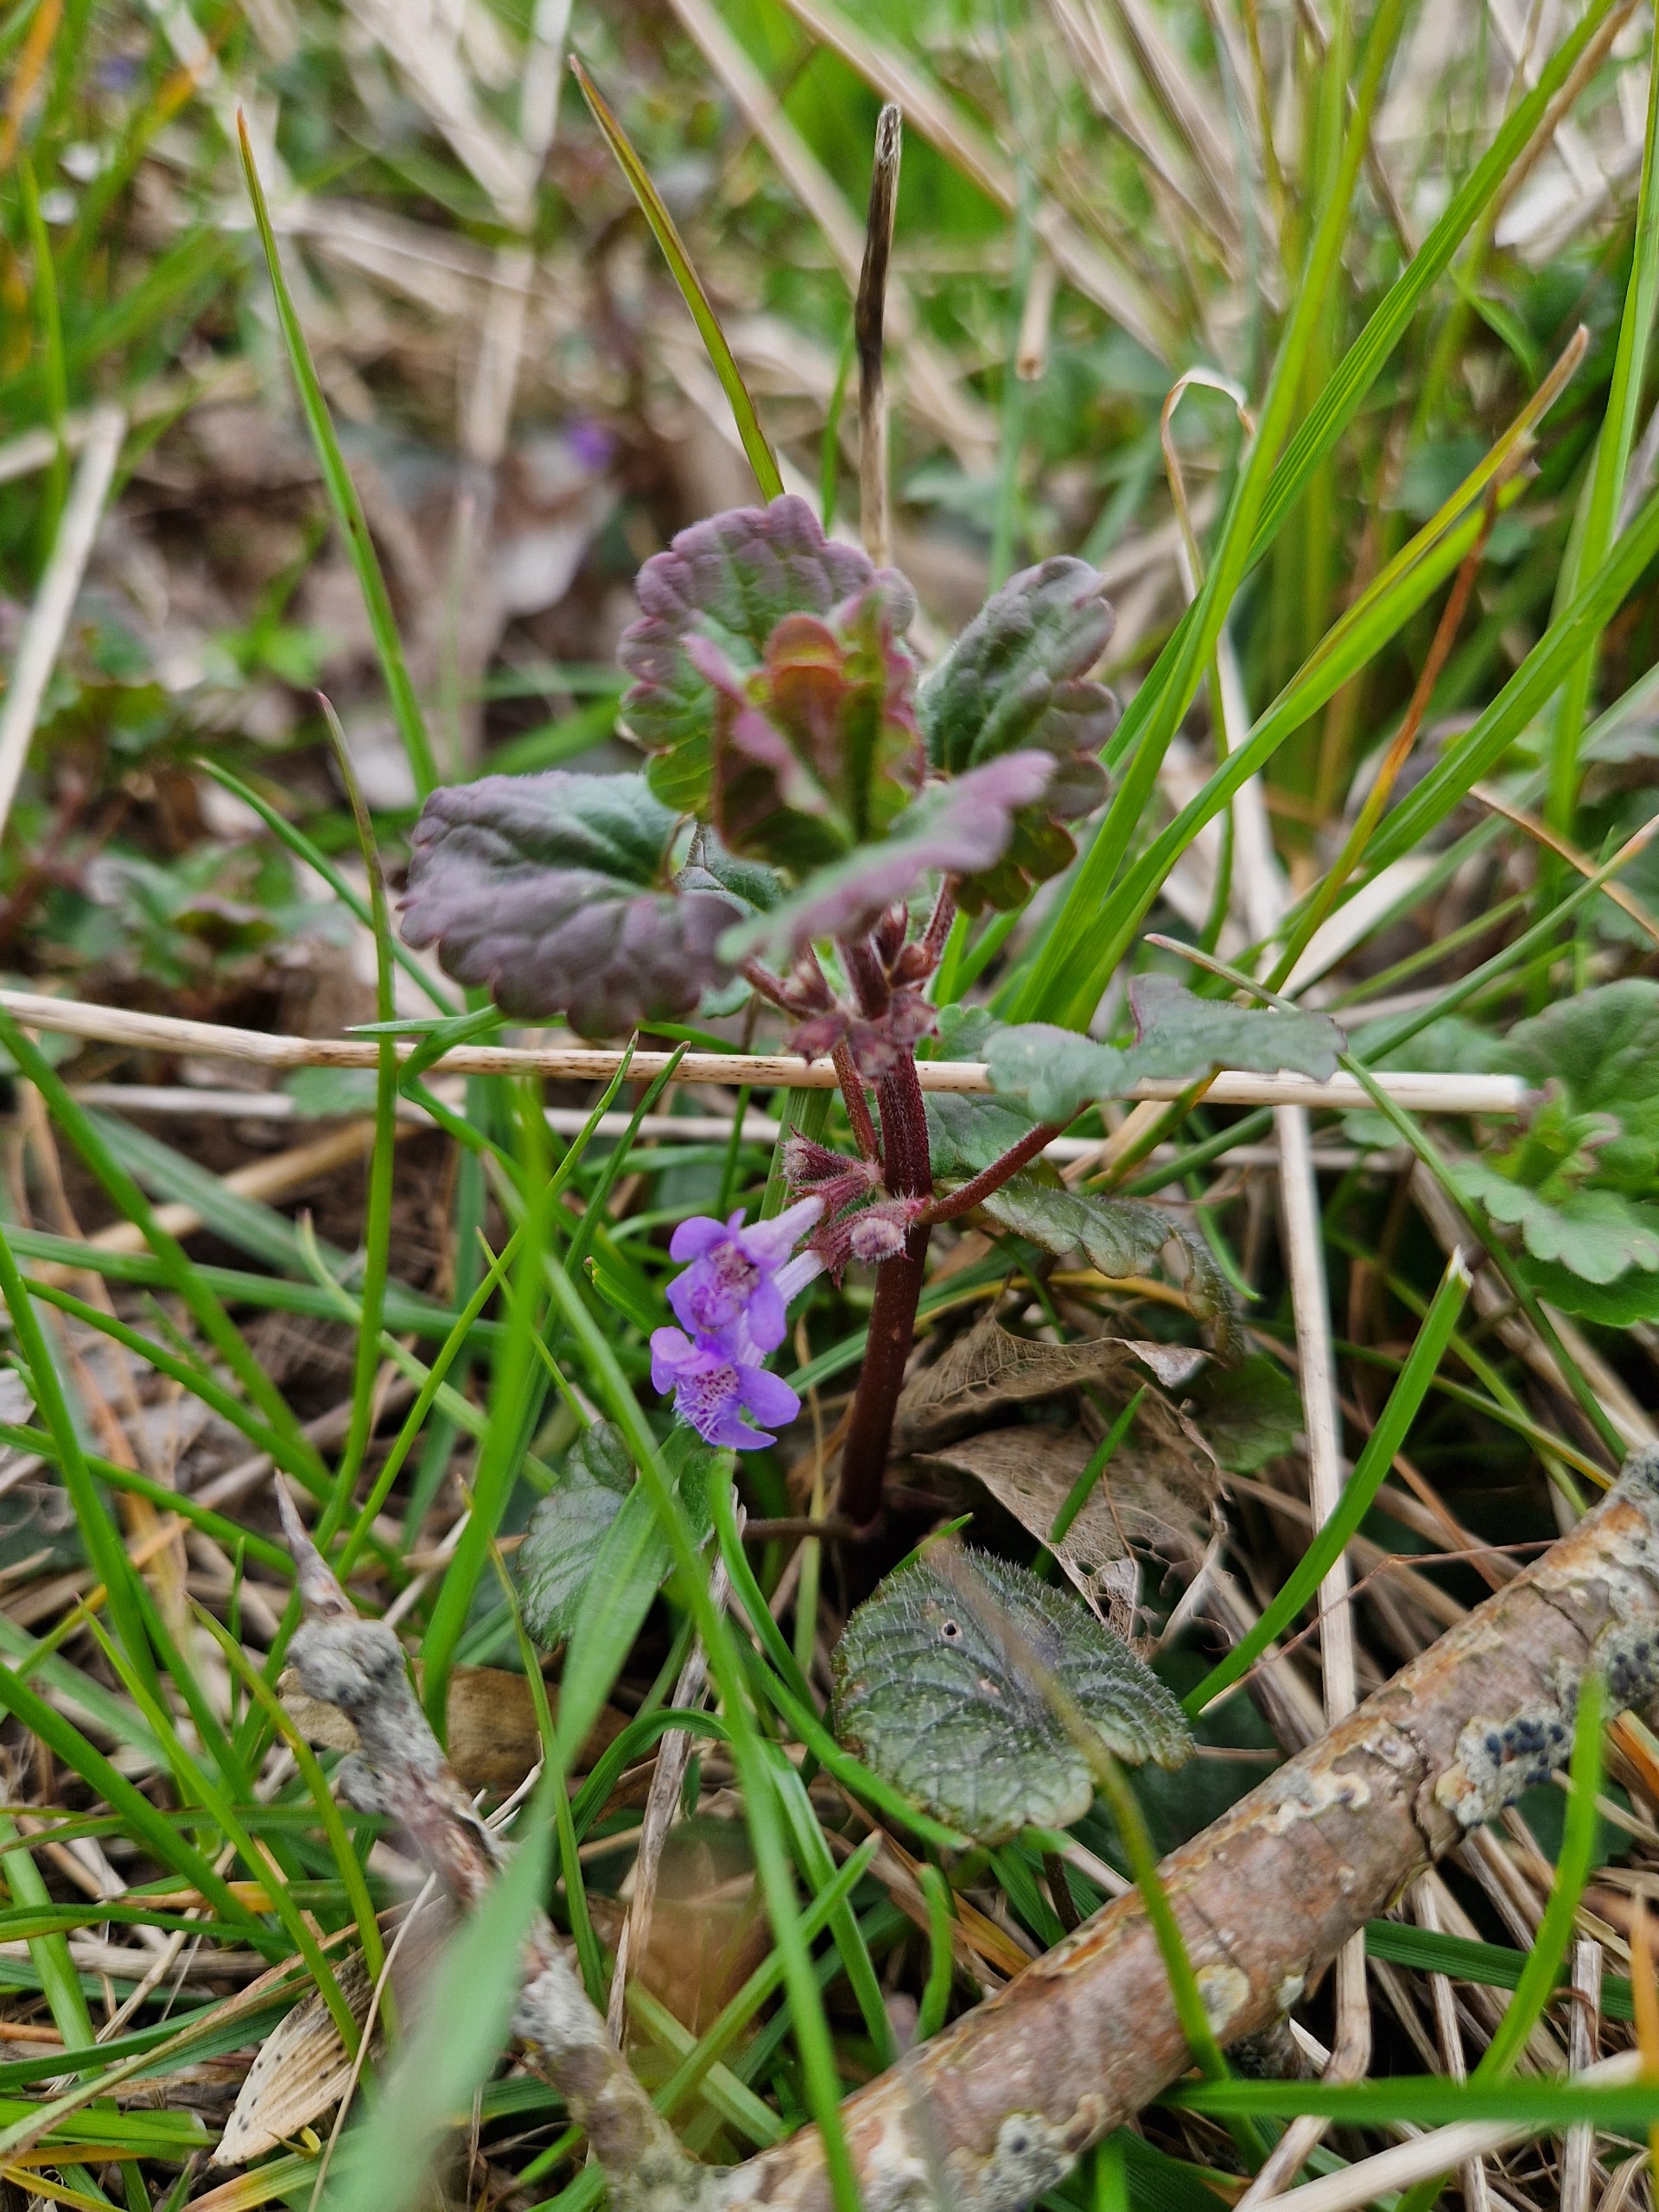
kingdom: Plantae
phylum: Tracheophyta
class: Magnoliopsida
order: Lamiales
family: Lamiaceae
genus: Glechoma
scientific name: Glechoma hederacea
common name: Korsknap
